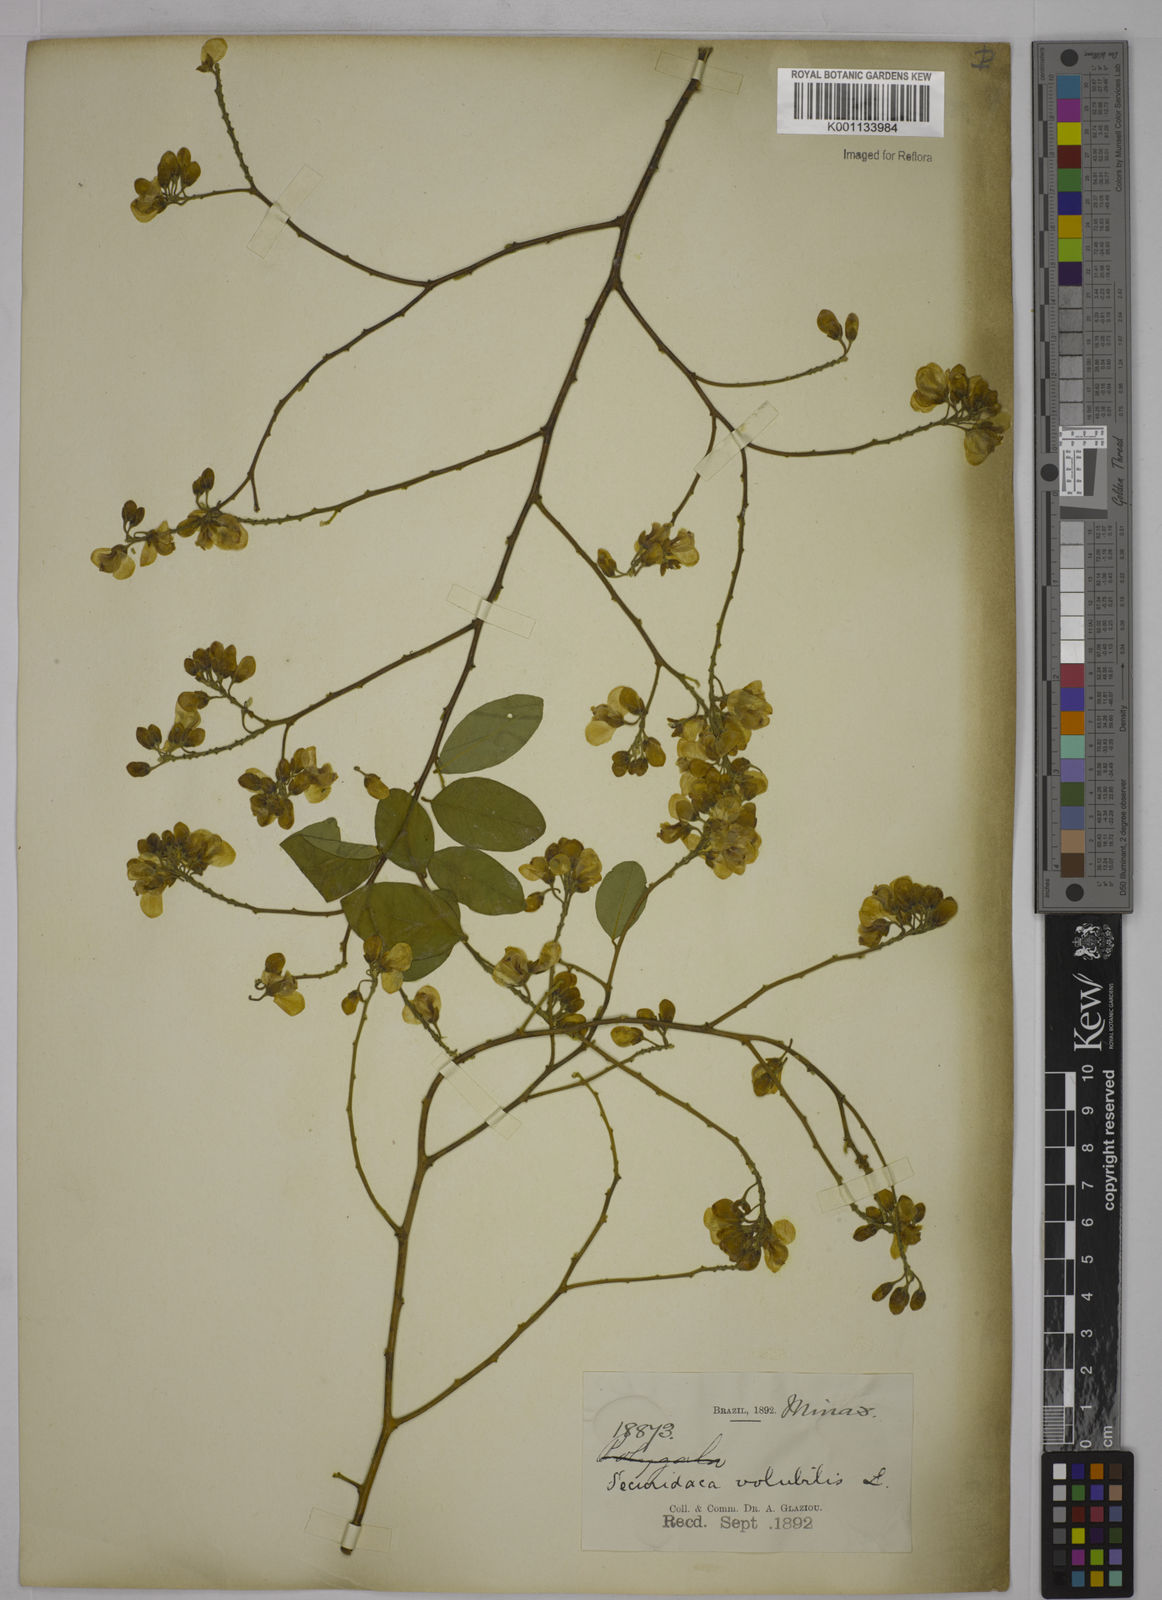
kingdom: Plantae
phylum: Tracheophyta
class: Magnoliopsida
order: Fabales
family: Polygalaceae
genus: Securidaca
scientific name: Securidaca diversifolia
